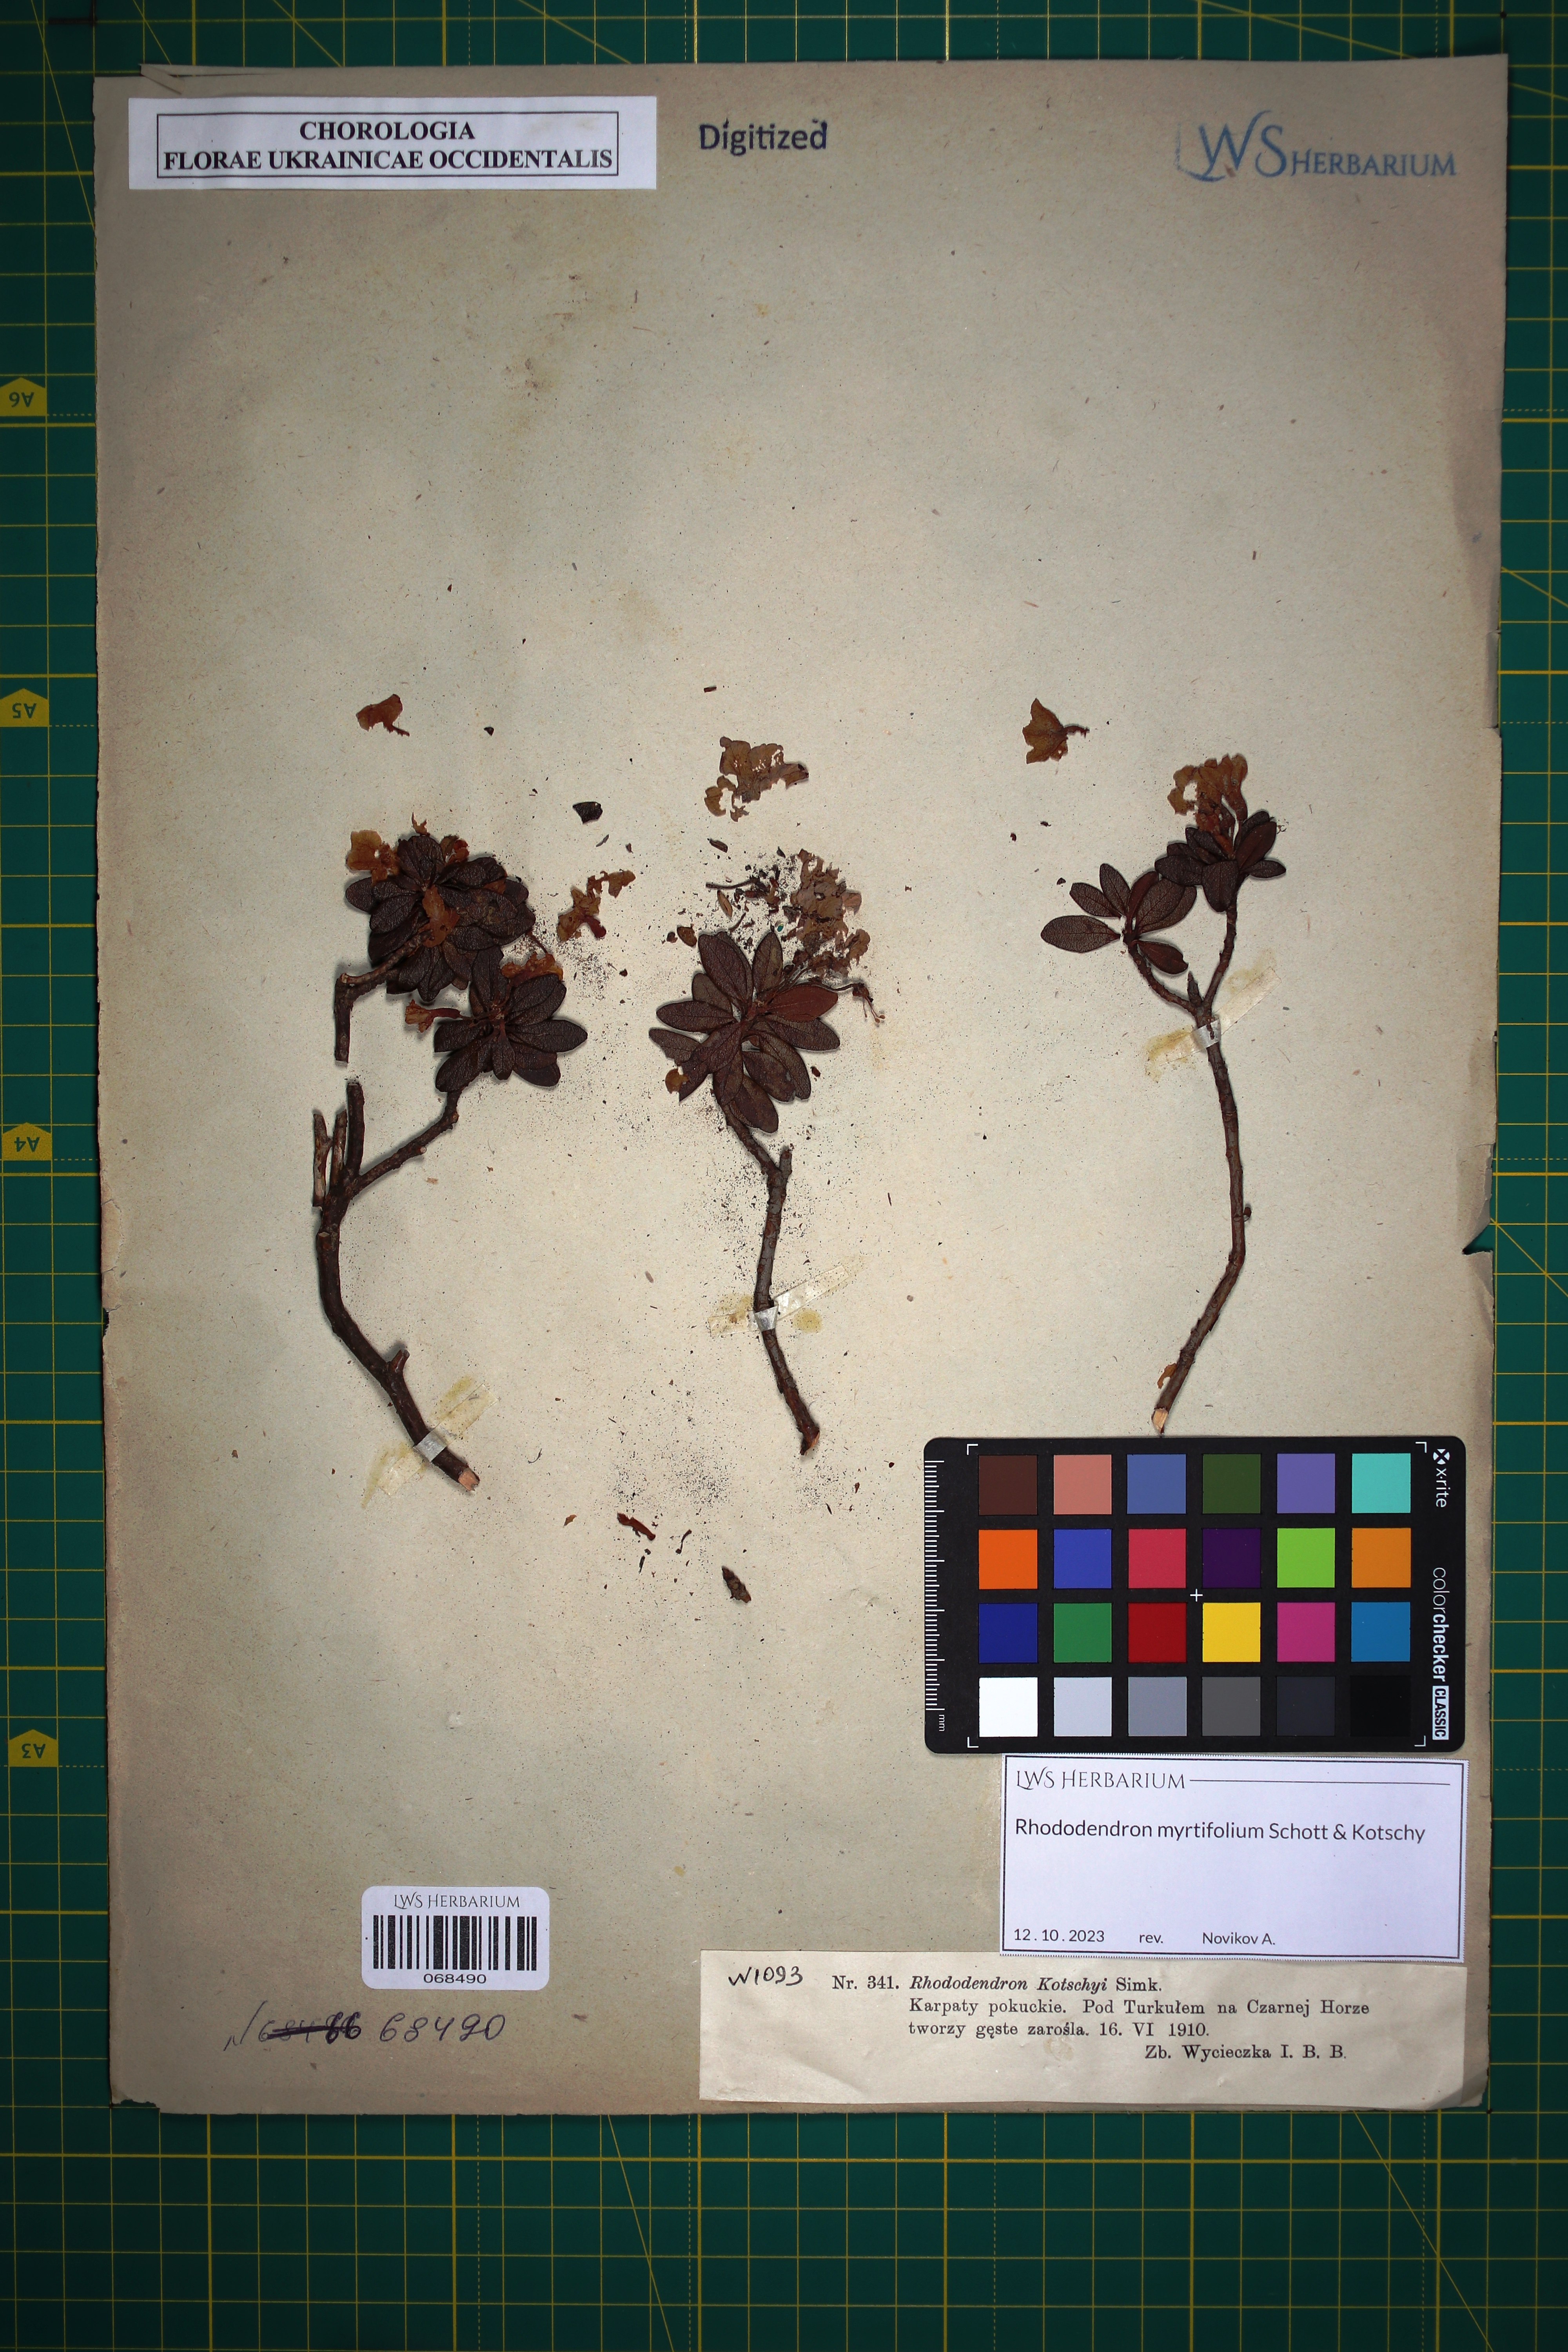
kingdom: Plantae
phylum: Tracheophyta
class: Magnoliopsida
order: Ericales
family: Ericaceae
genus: Rhododendron
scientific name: Rhododendron kotschyi
